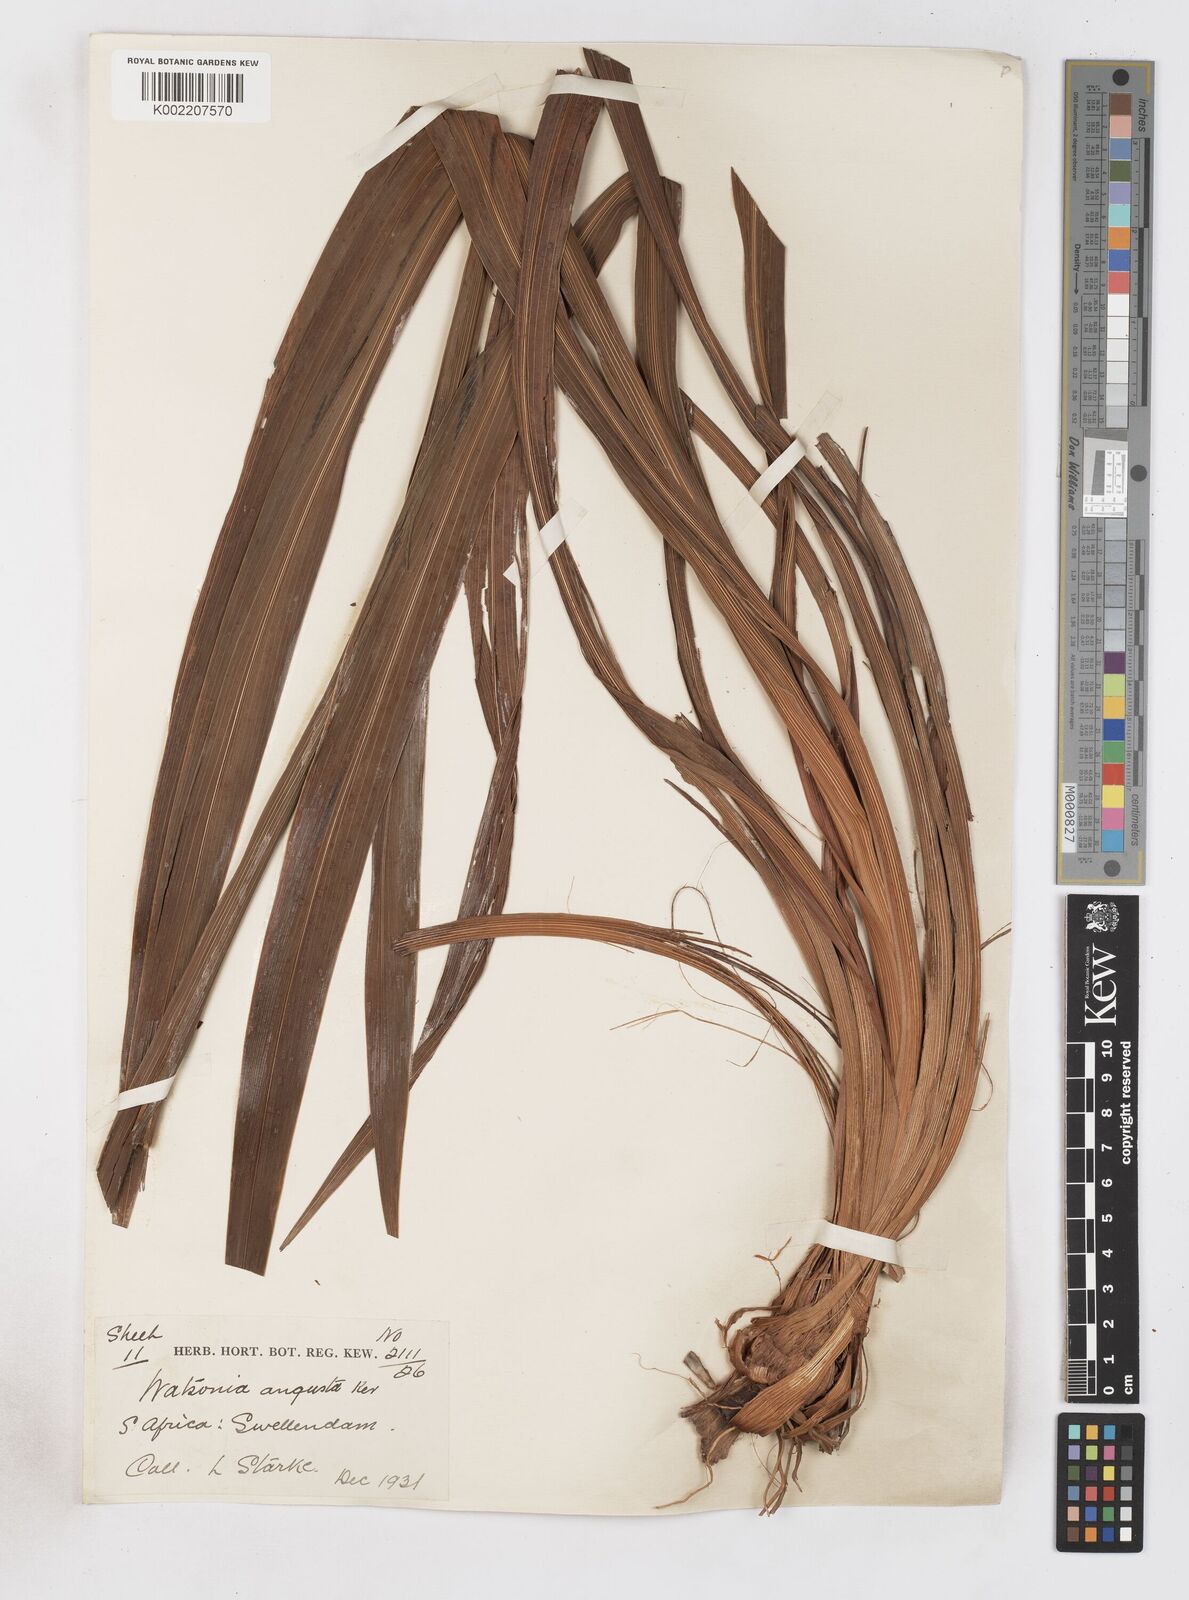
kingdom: Plantae
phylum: Tracheophyta
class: Liliopsida
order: Asparagales
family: Iridaceae
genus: Watsonia
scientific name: Watsonia angusta
